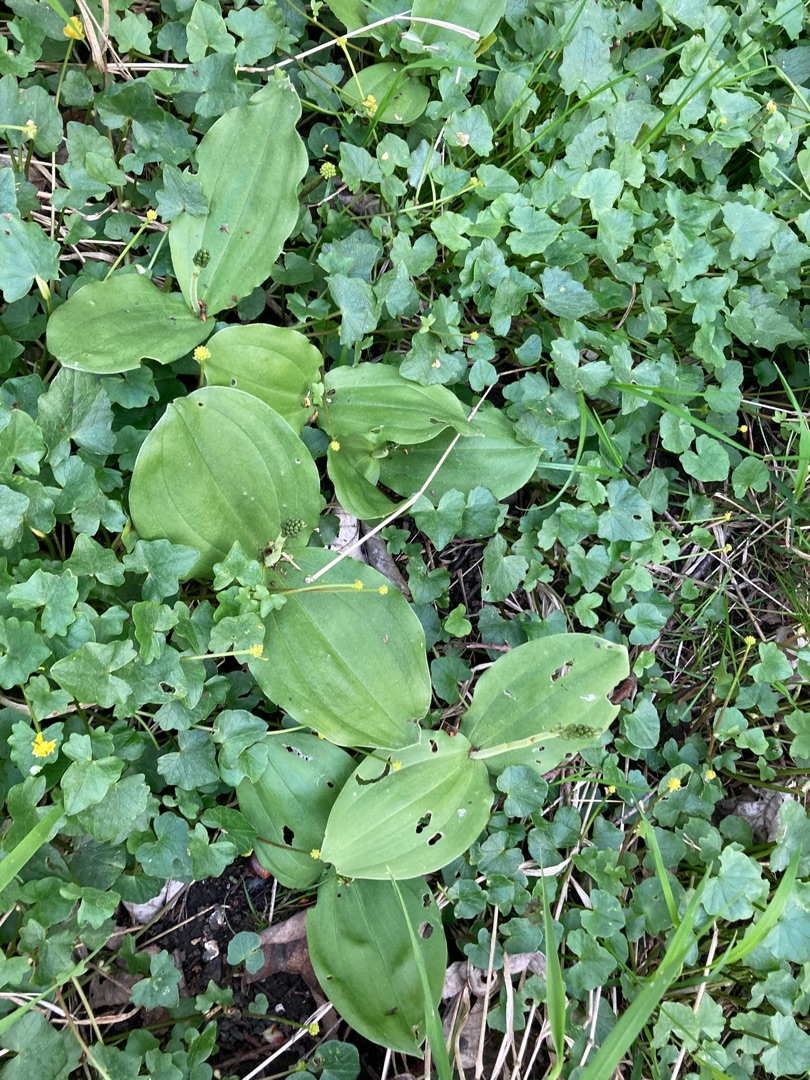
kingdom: Plantae
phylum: Tracheophyta
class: Liliopsida
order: Asparagales
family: Orchidaceae
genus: Neottia
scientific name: Neottia ovata
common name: Ægbladet fliglæbe
